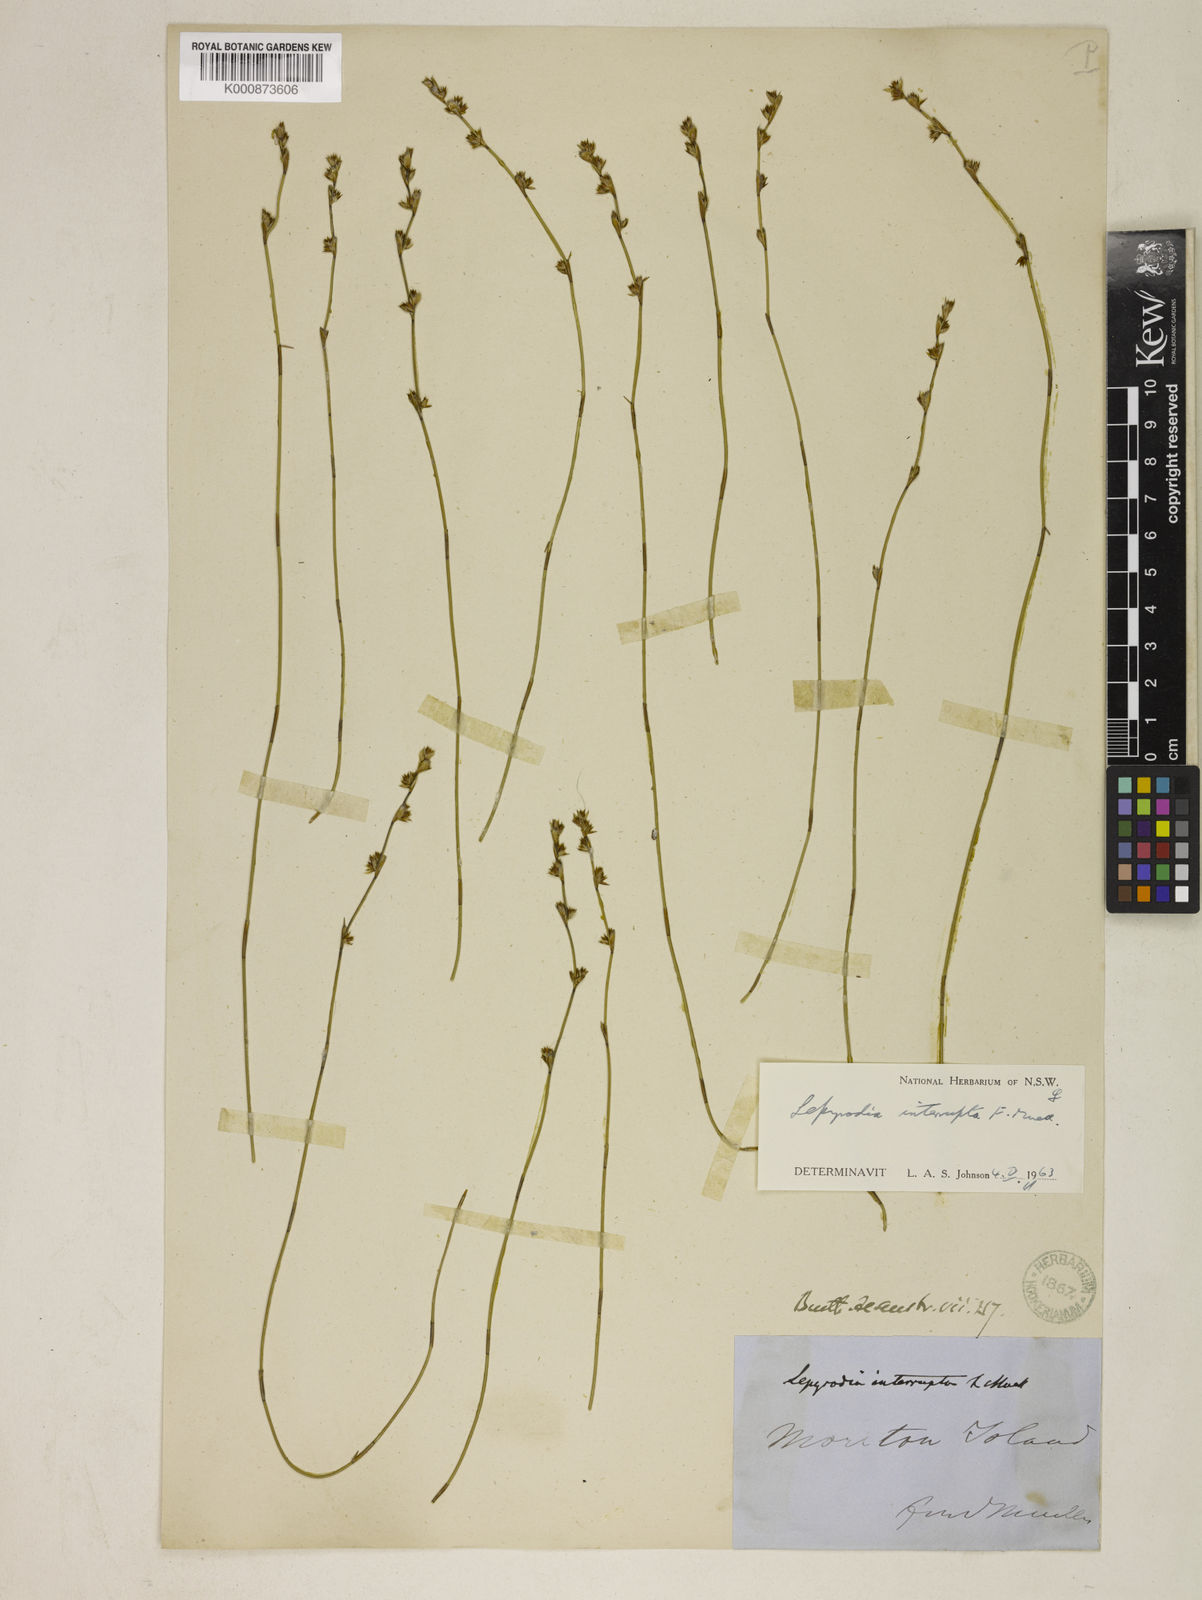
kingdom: Plantae
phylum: Tracheophyta
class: Liliopsida
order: Poales
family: Restionaceae
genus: Sporadanthus
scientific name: Sporadanthus interruptus
